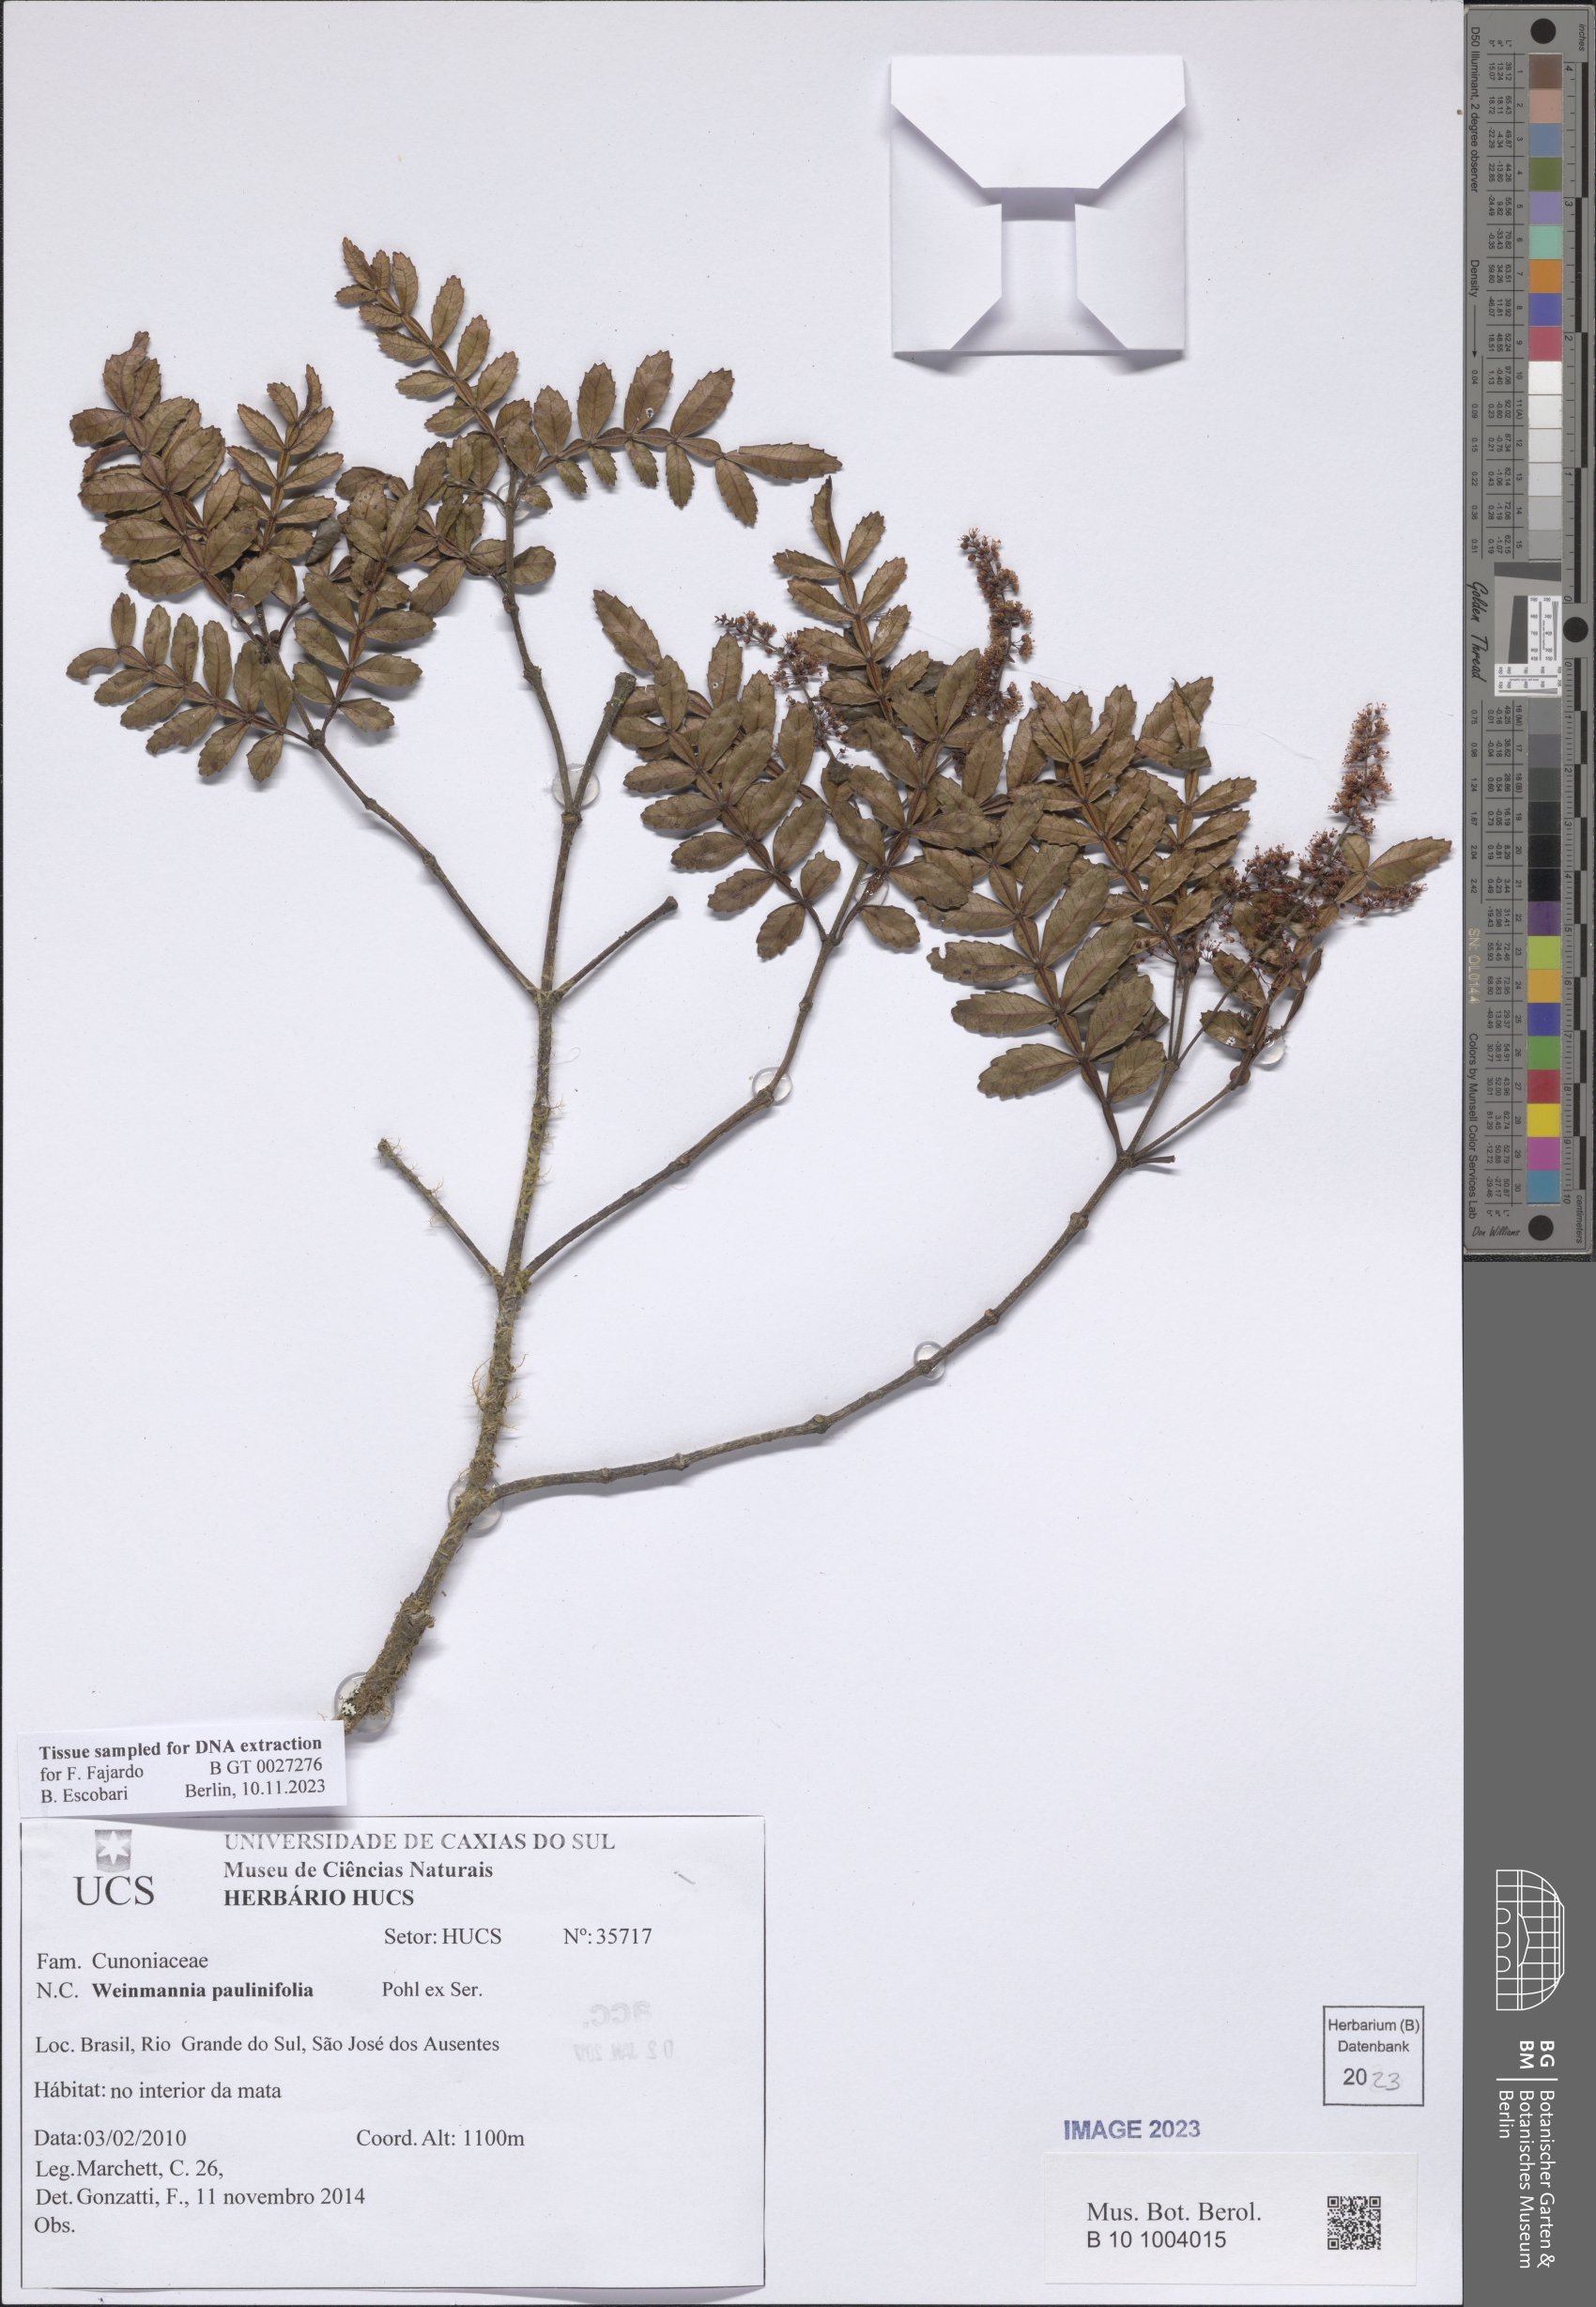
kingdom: Plantae
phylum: Tracheophyta
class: Magnoliopsida
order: Oxalidales
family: Cunoniaceae
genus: Weinmannia
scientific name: Weinmannia paullinifolia
